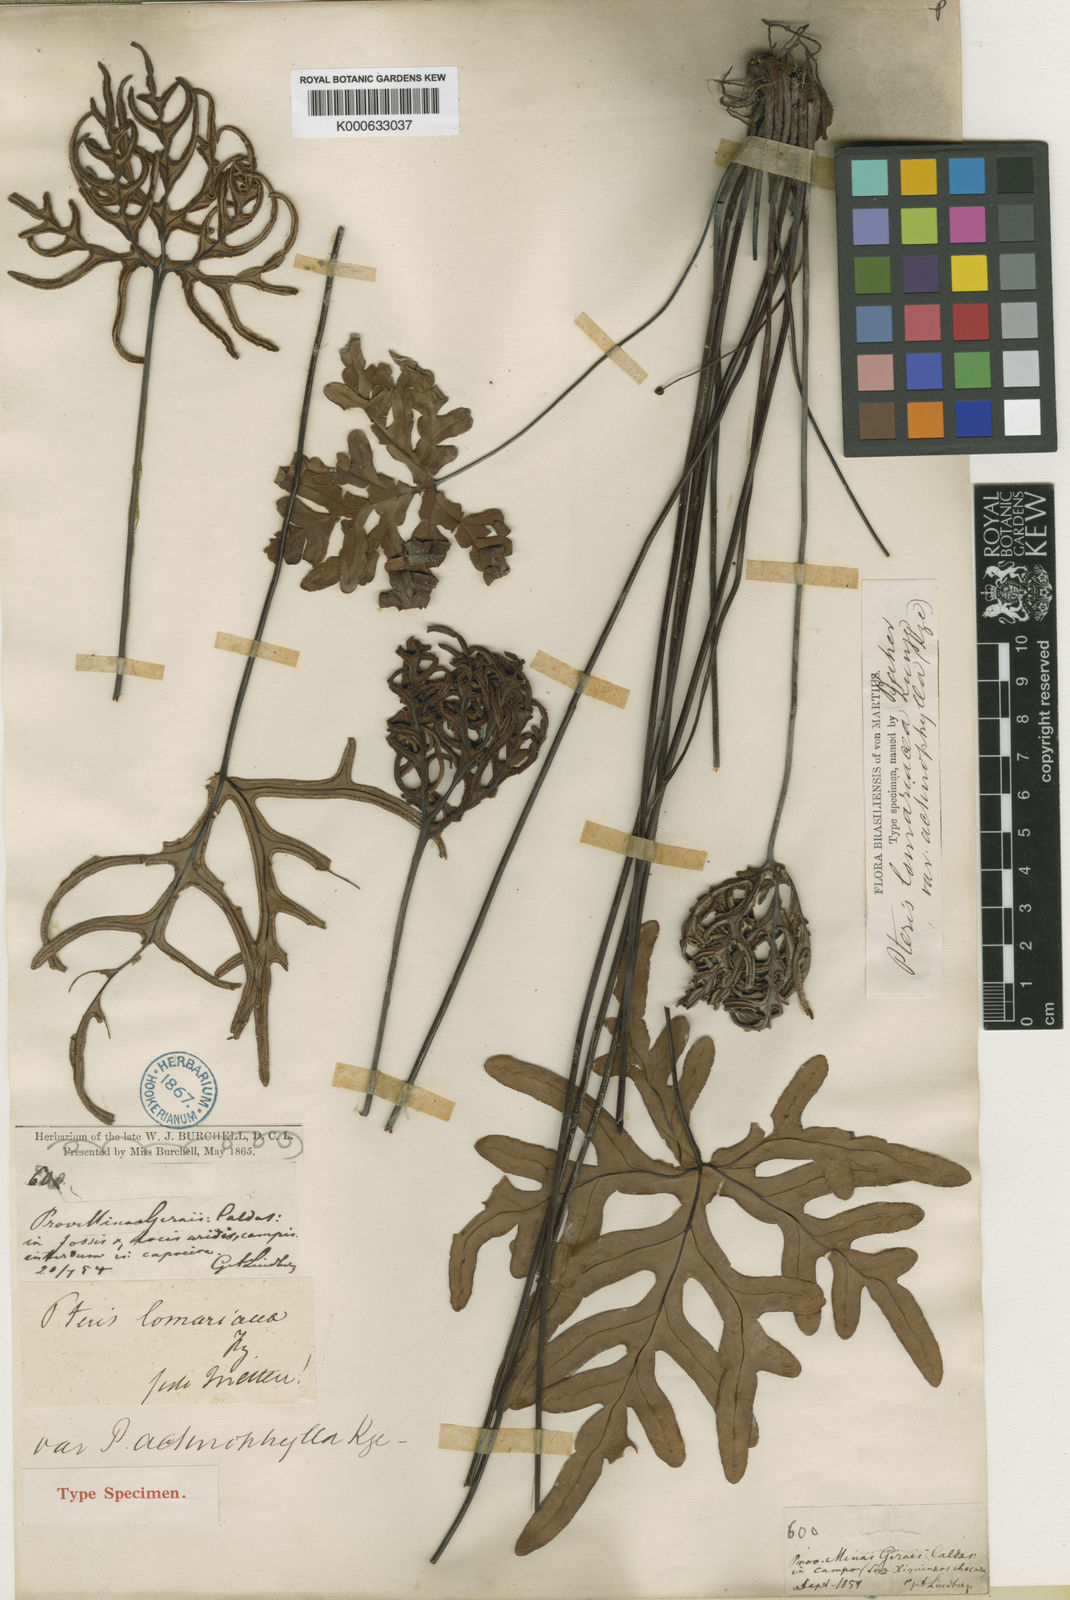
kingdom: Plantae
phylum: Tracheophyta
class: Polypodiopsida
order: Polypodiales
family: Pteridaceae
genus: Doryopteris
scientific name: Doryopteris
